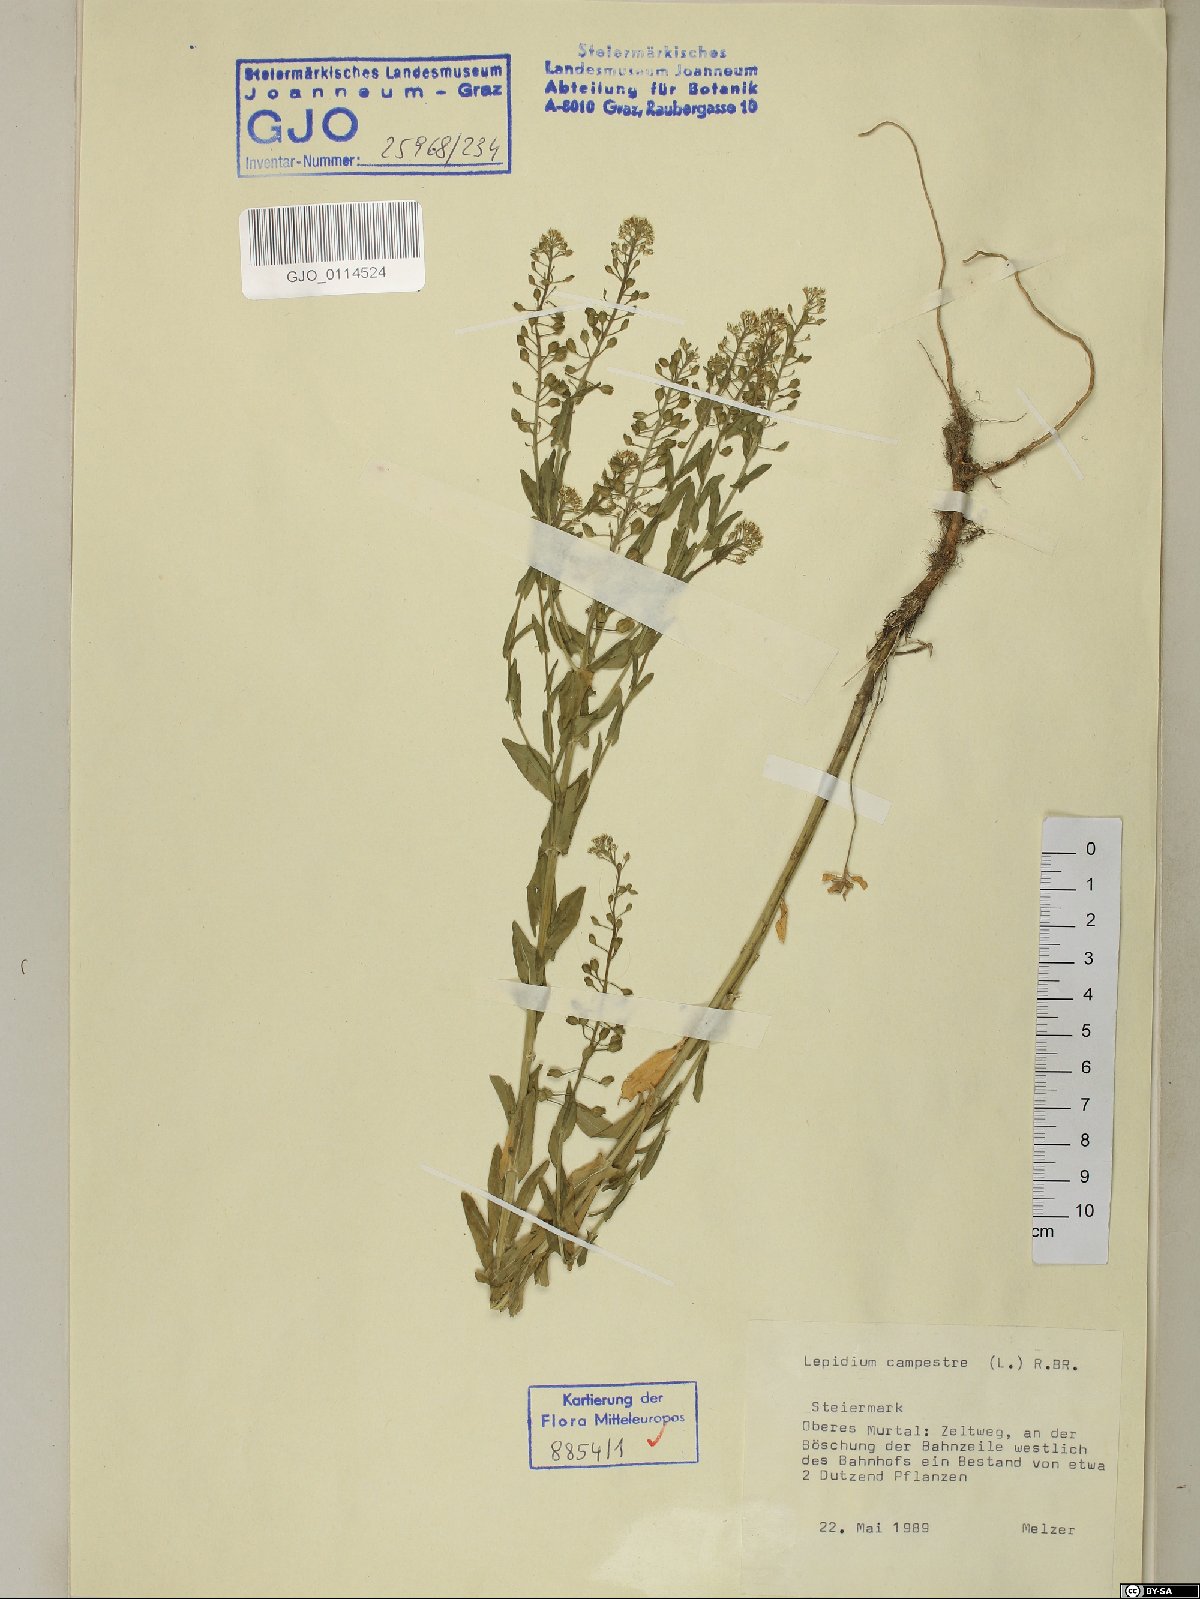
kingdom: Plantae
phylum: Tracheophyta
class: Magnoliopsida
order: Brassicales
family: Brassicaceae
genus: Lepidium
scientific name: Lepidium campestre
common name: Field pepperwort
